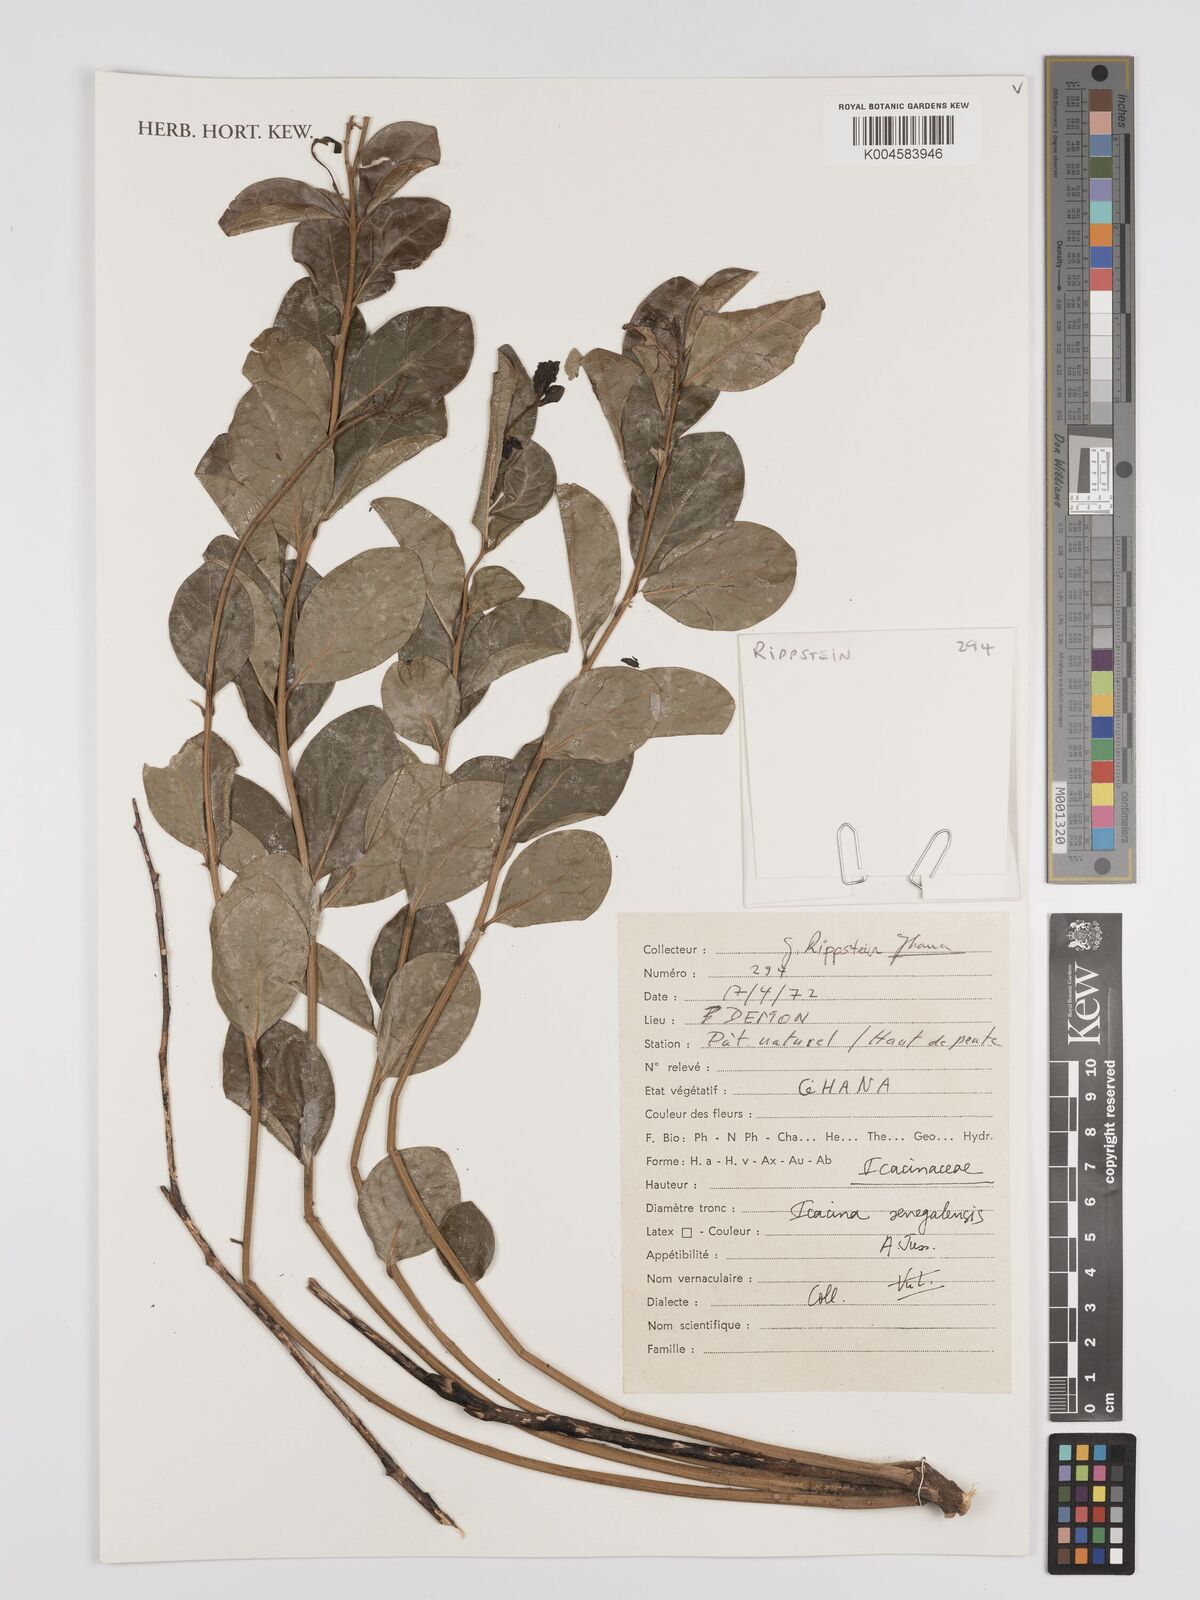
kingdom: Plantae
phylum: Tracheophyta
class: Magnoliopsida
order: Icacinales
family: Icacinaceae
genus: Icacina
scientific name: Icacina oliviformis
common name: False yam
